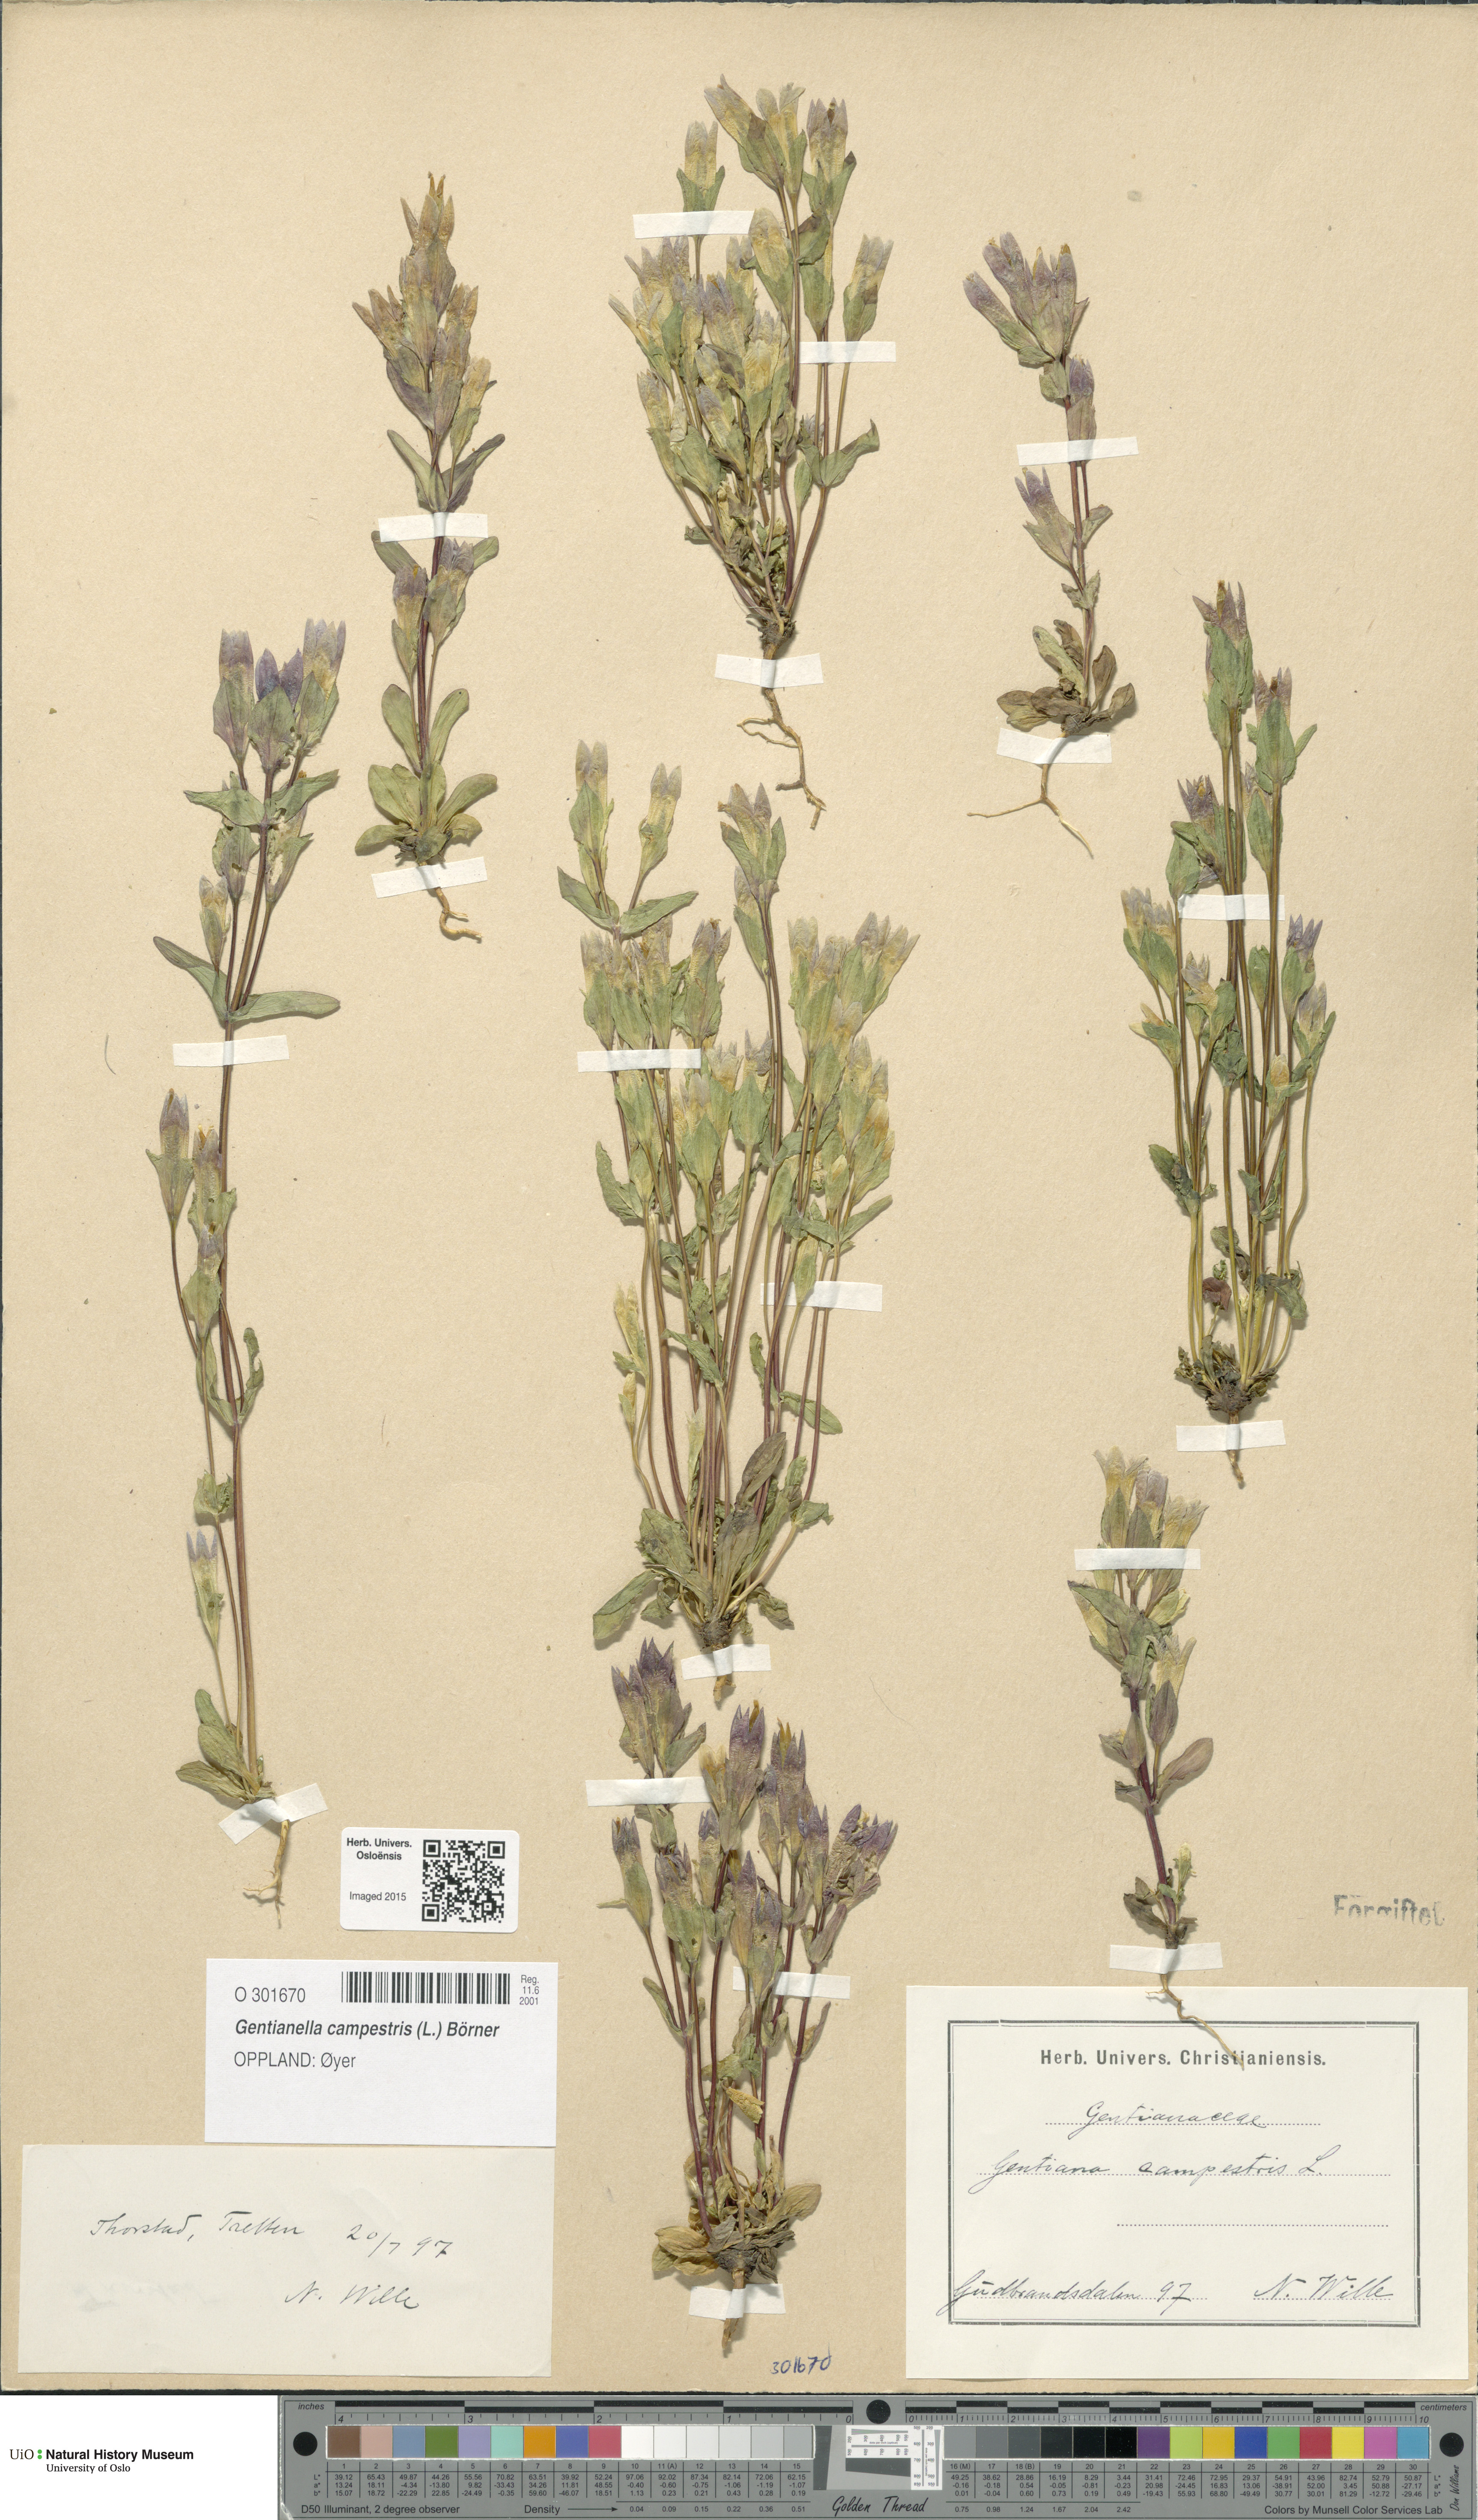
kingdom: Plantae
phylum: Tracheophyta
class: Magnoliopsida
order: Gentianales
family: Gentianaceae
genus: Gentianella
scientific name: Gentianella campestris
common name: Field gentian
